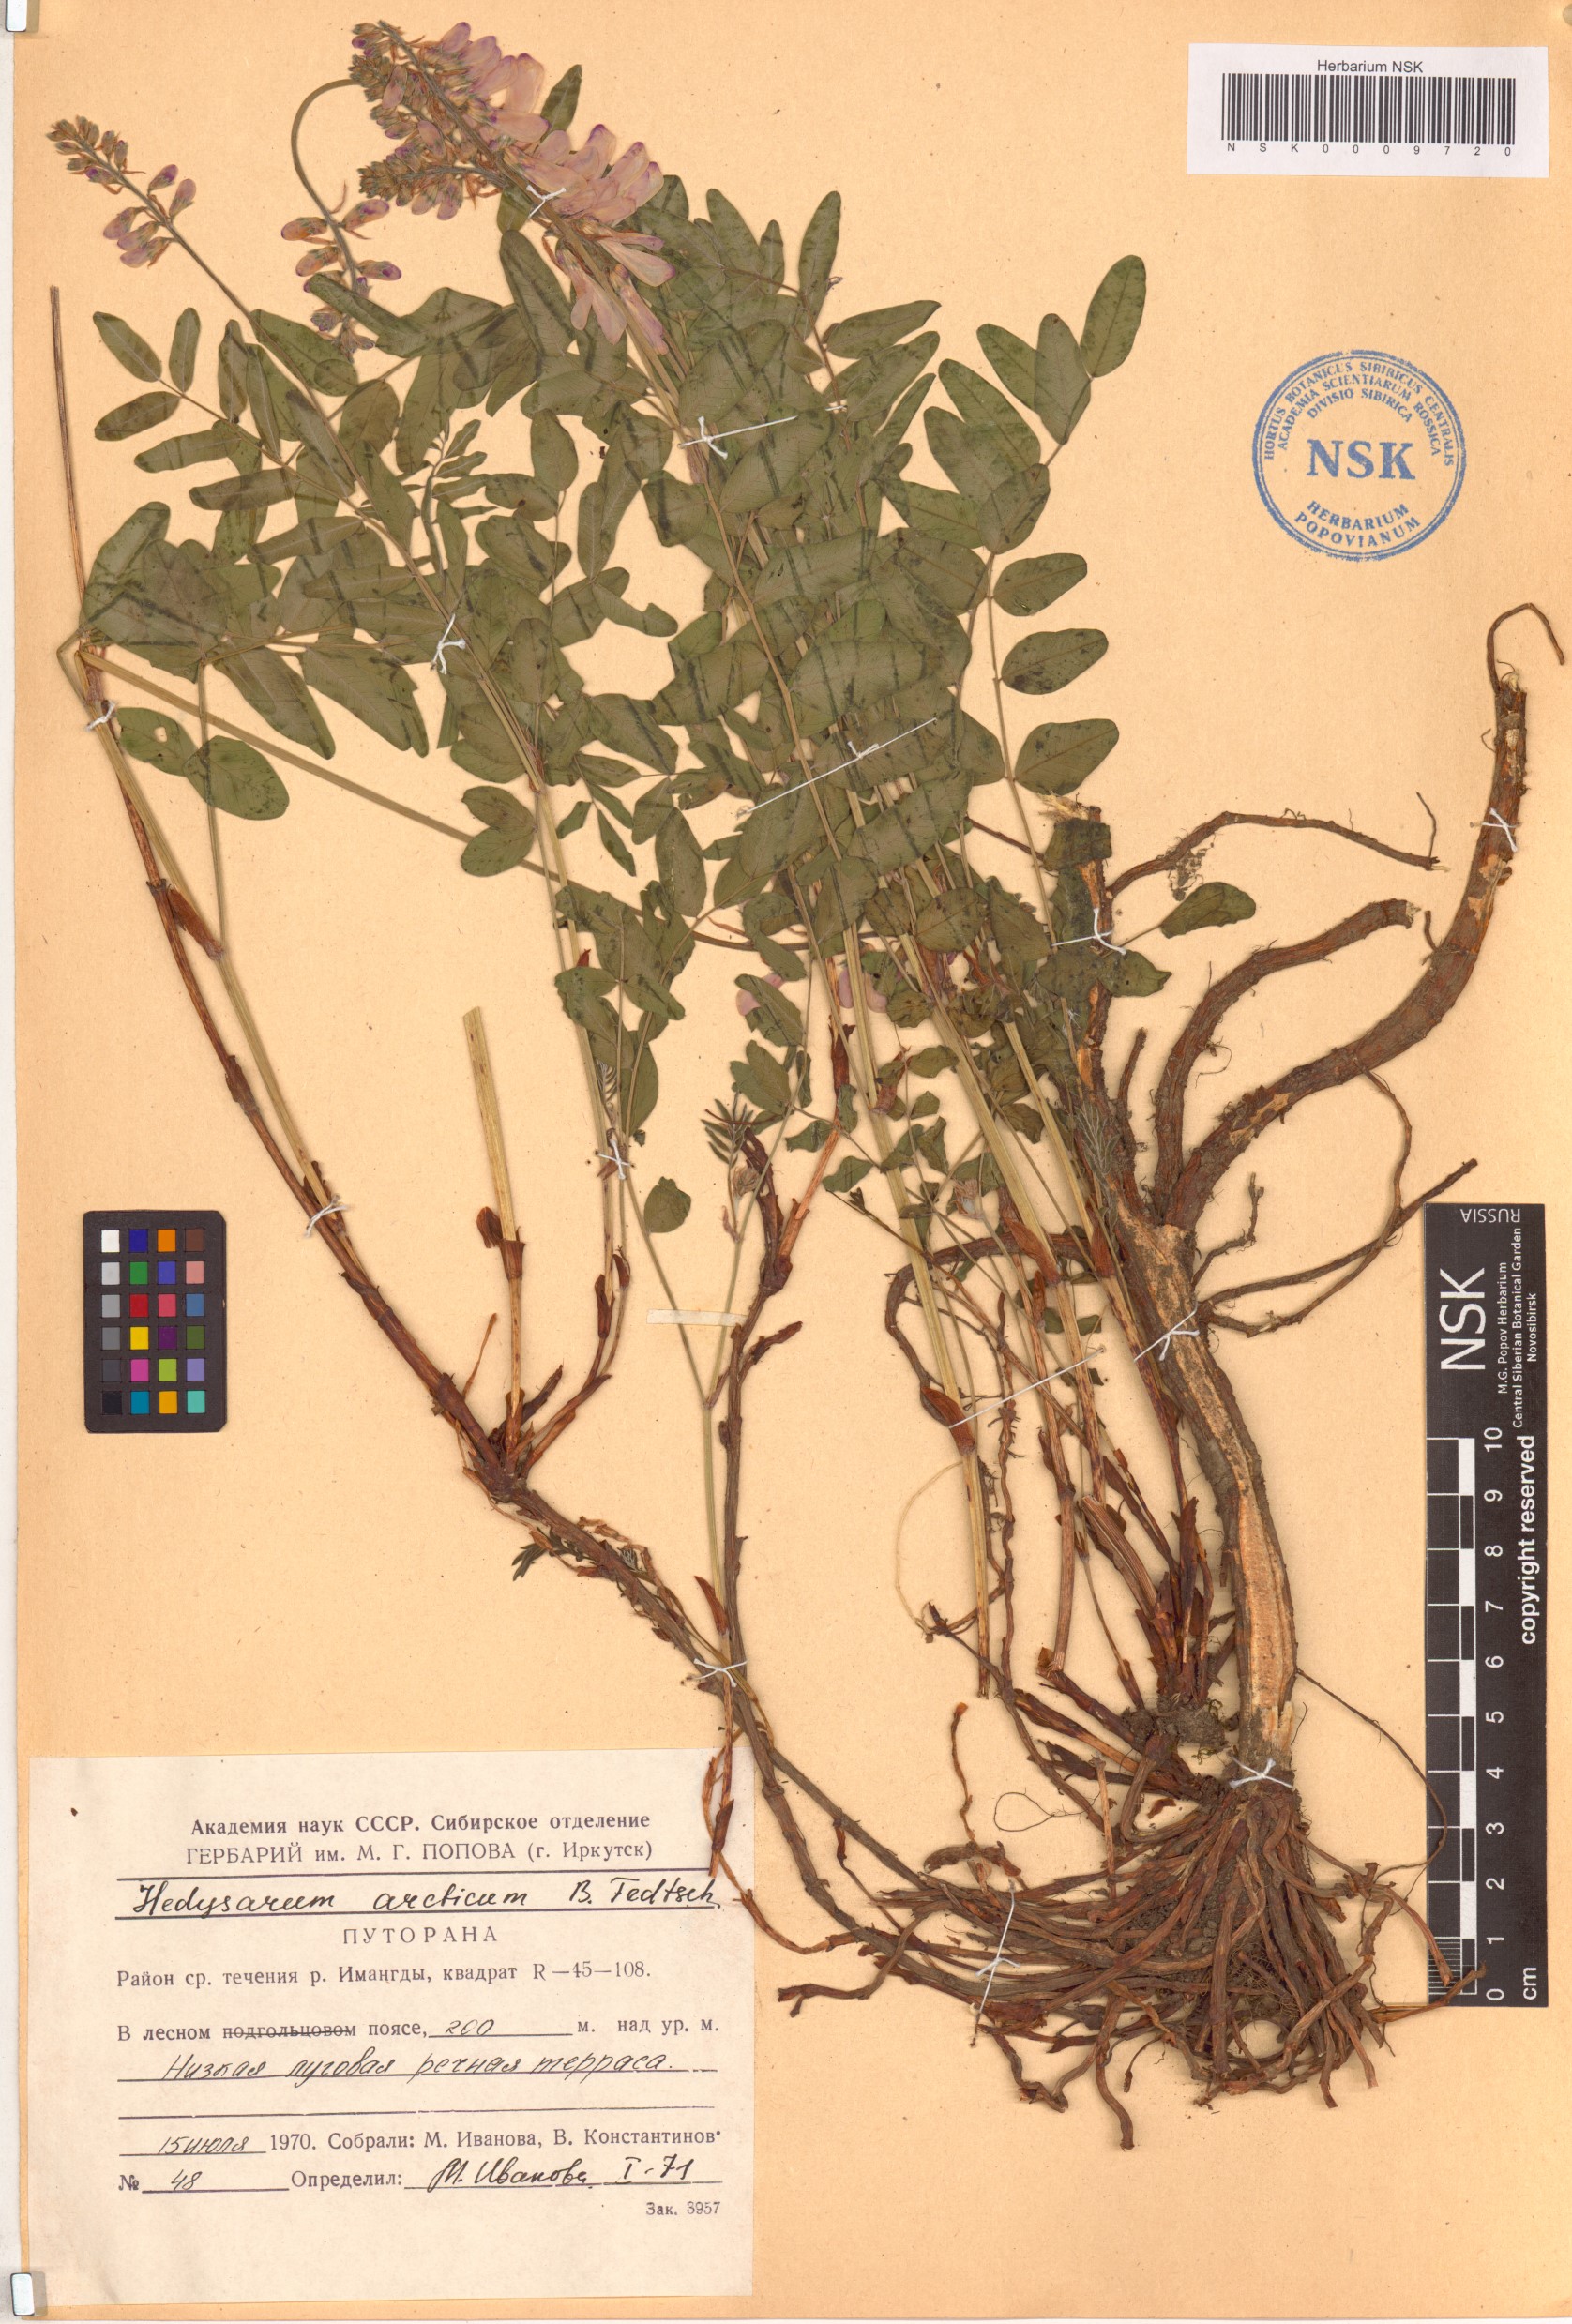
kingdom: Plantae
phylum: Tracheophyta
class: Magnoliopsida
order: Fabales
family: Fabaceae
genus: Hedysarum
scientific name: Hedysarum hedysaroides
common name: Alpine french-honeysuckle
